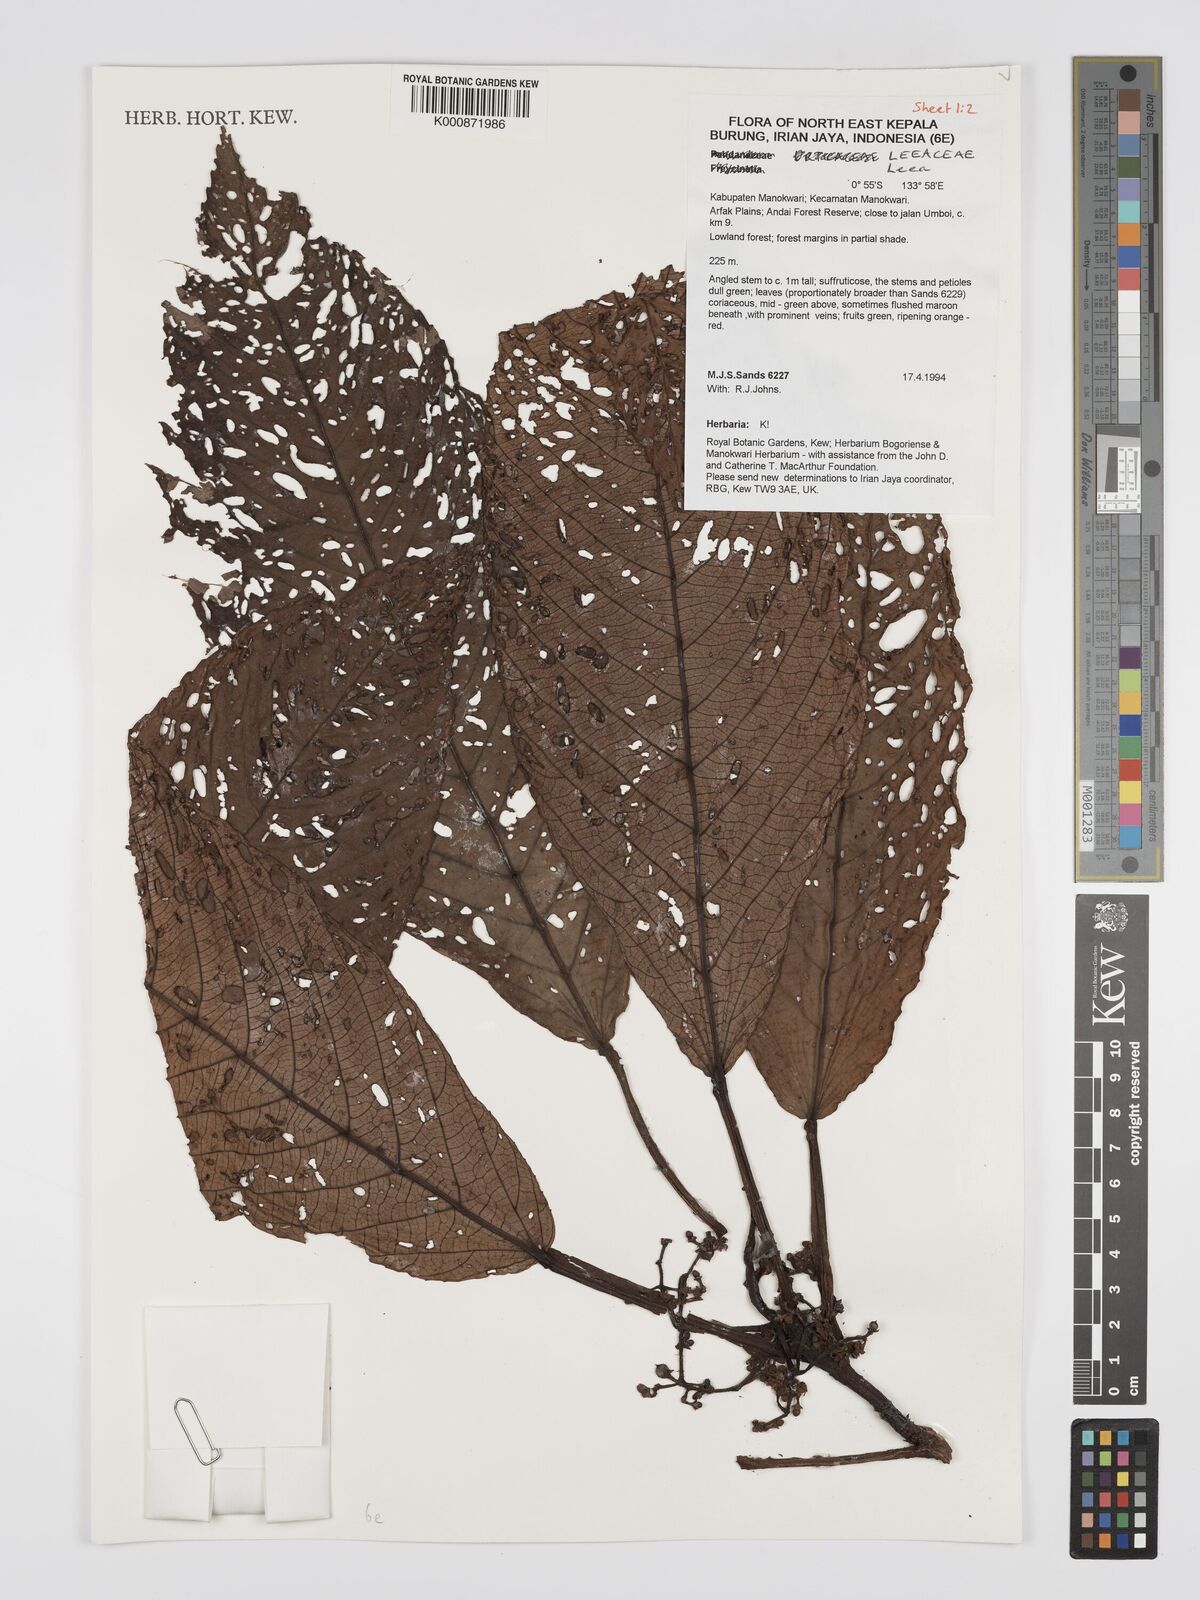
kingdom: Plantae
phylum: Tracheophyta
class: Magnoliopsida
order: Vitales
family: Vitaceae
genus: Leea
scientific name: Leea
